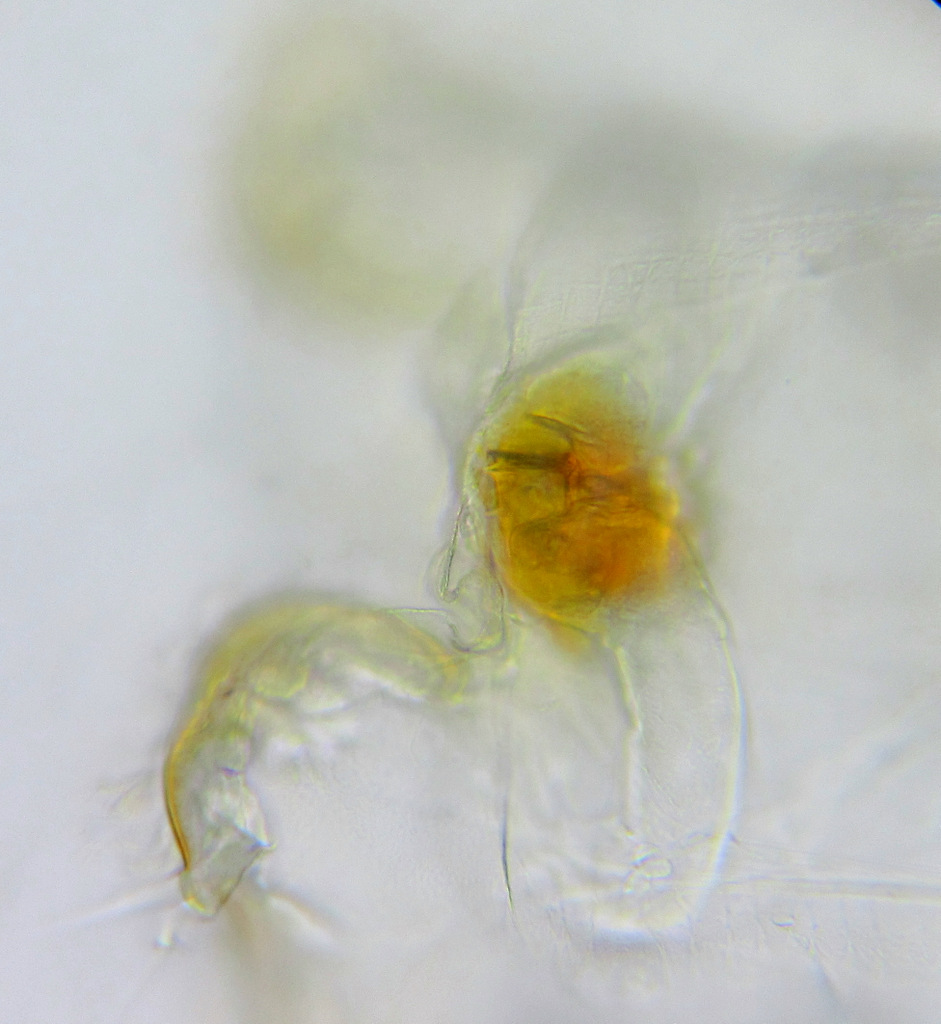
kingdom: Animalia
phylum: Rotifera
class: Eurotatoria
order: Ploima
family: Asplanchnidae
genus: Asplanchna
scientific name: Asplanchna priodonta
